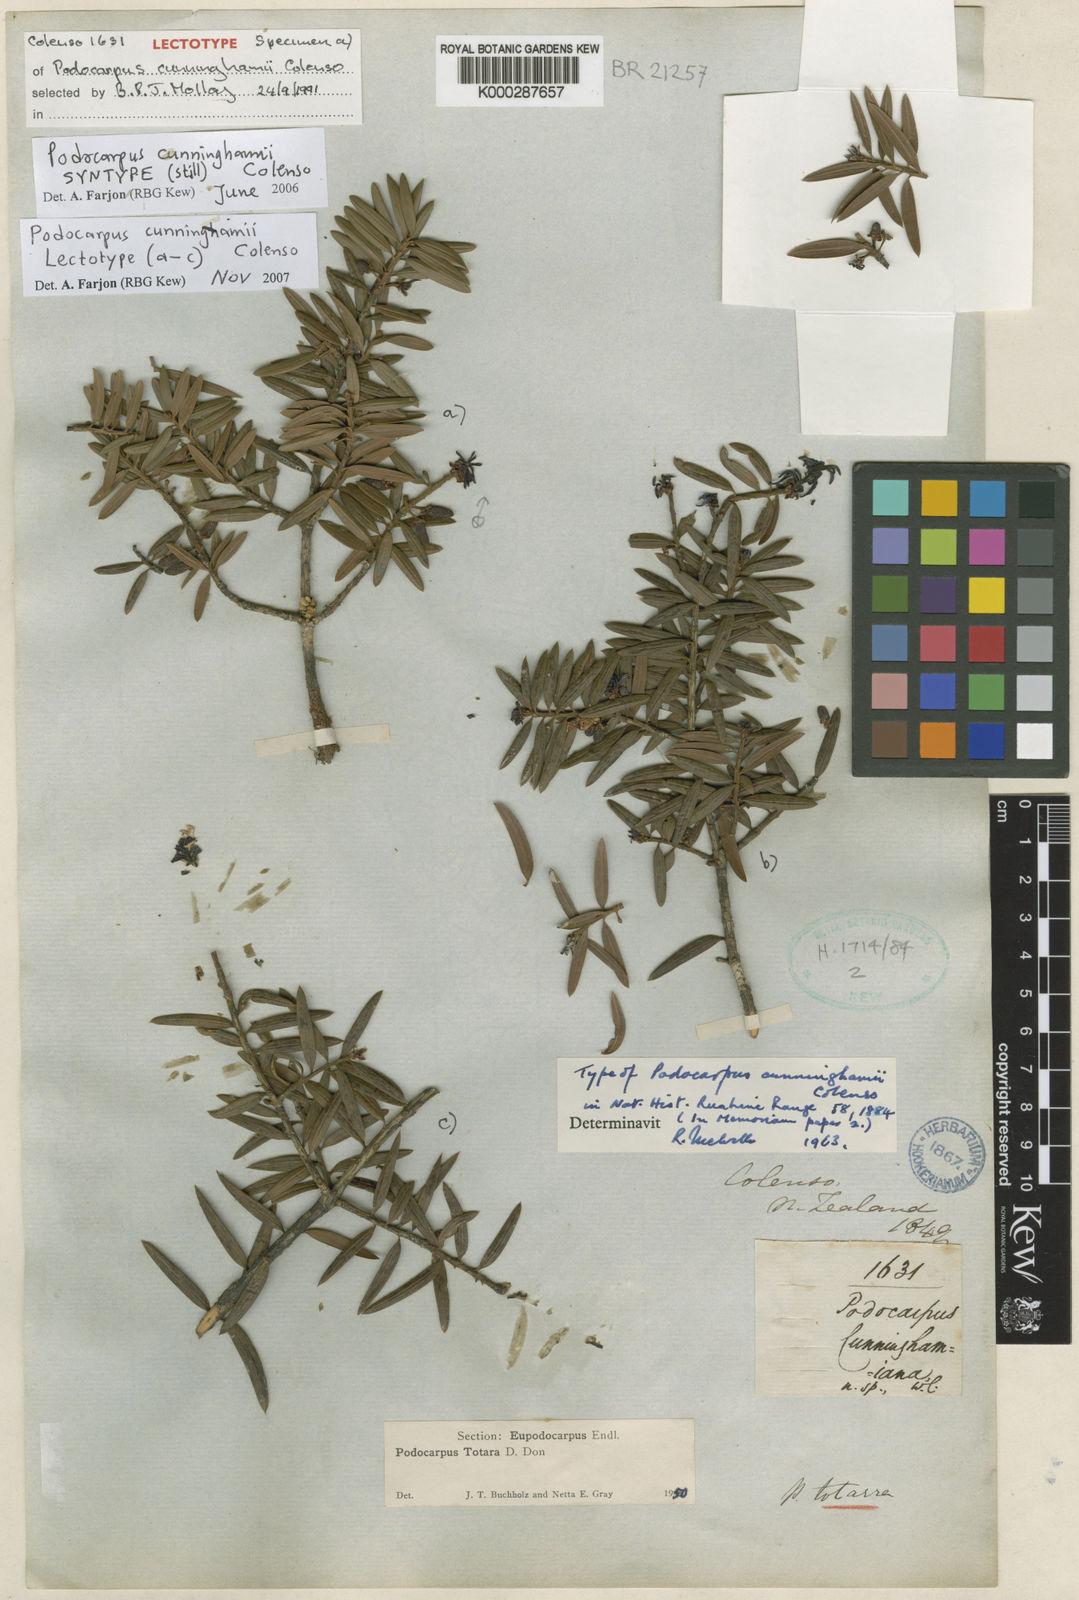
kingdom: Plantae
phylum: Tracheophyta
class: Pinopsida
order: Pinales
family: Podocarpaceae
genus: Podocarpus
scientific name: Podocarpus cunninghamii
